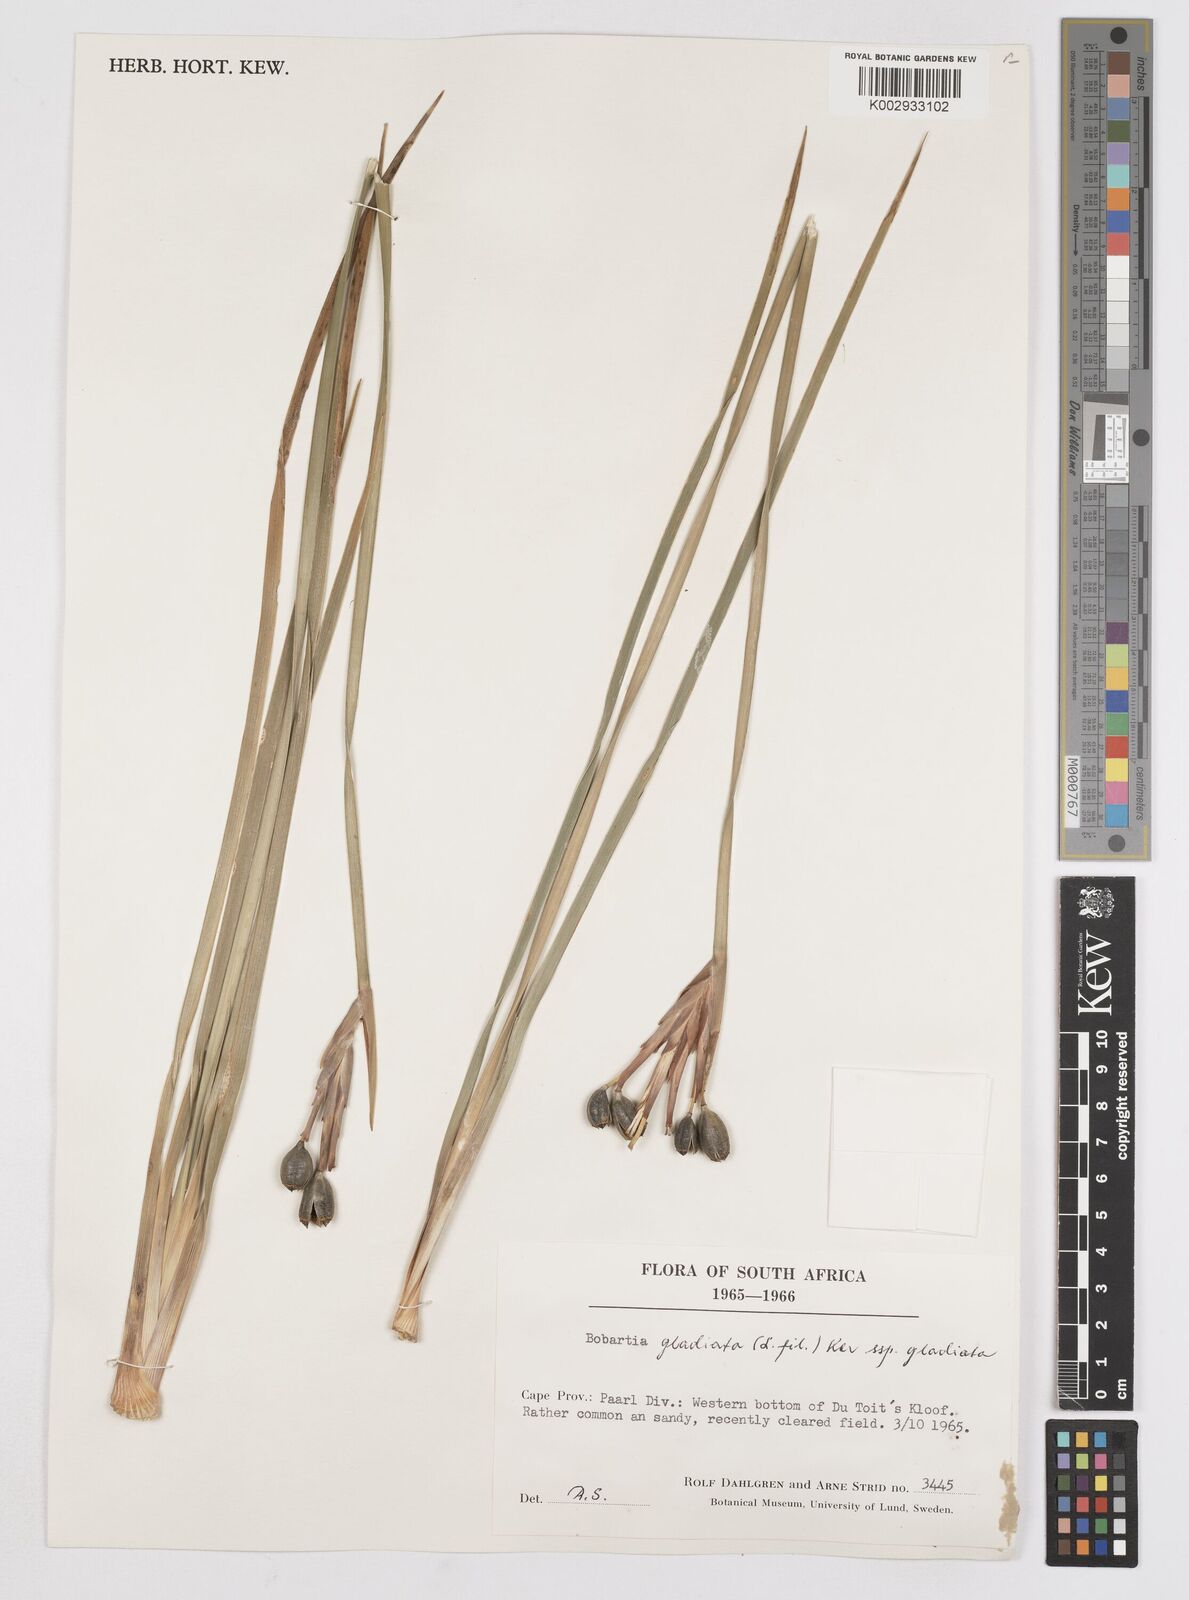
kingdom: Plantae
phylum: Tracheophyta
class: Liliopsida
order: Asparagales
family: Iridaceae
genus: Bobartia
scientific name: Bobartia gladiata
